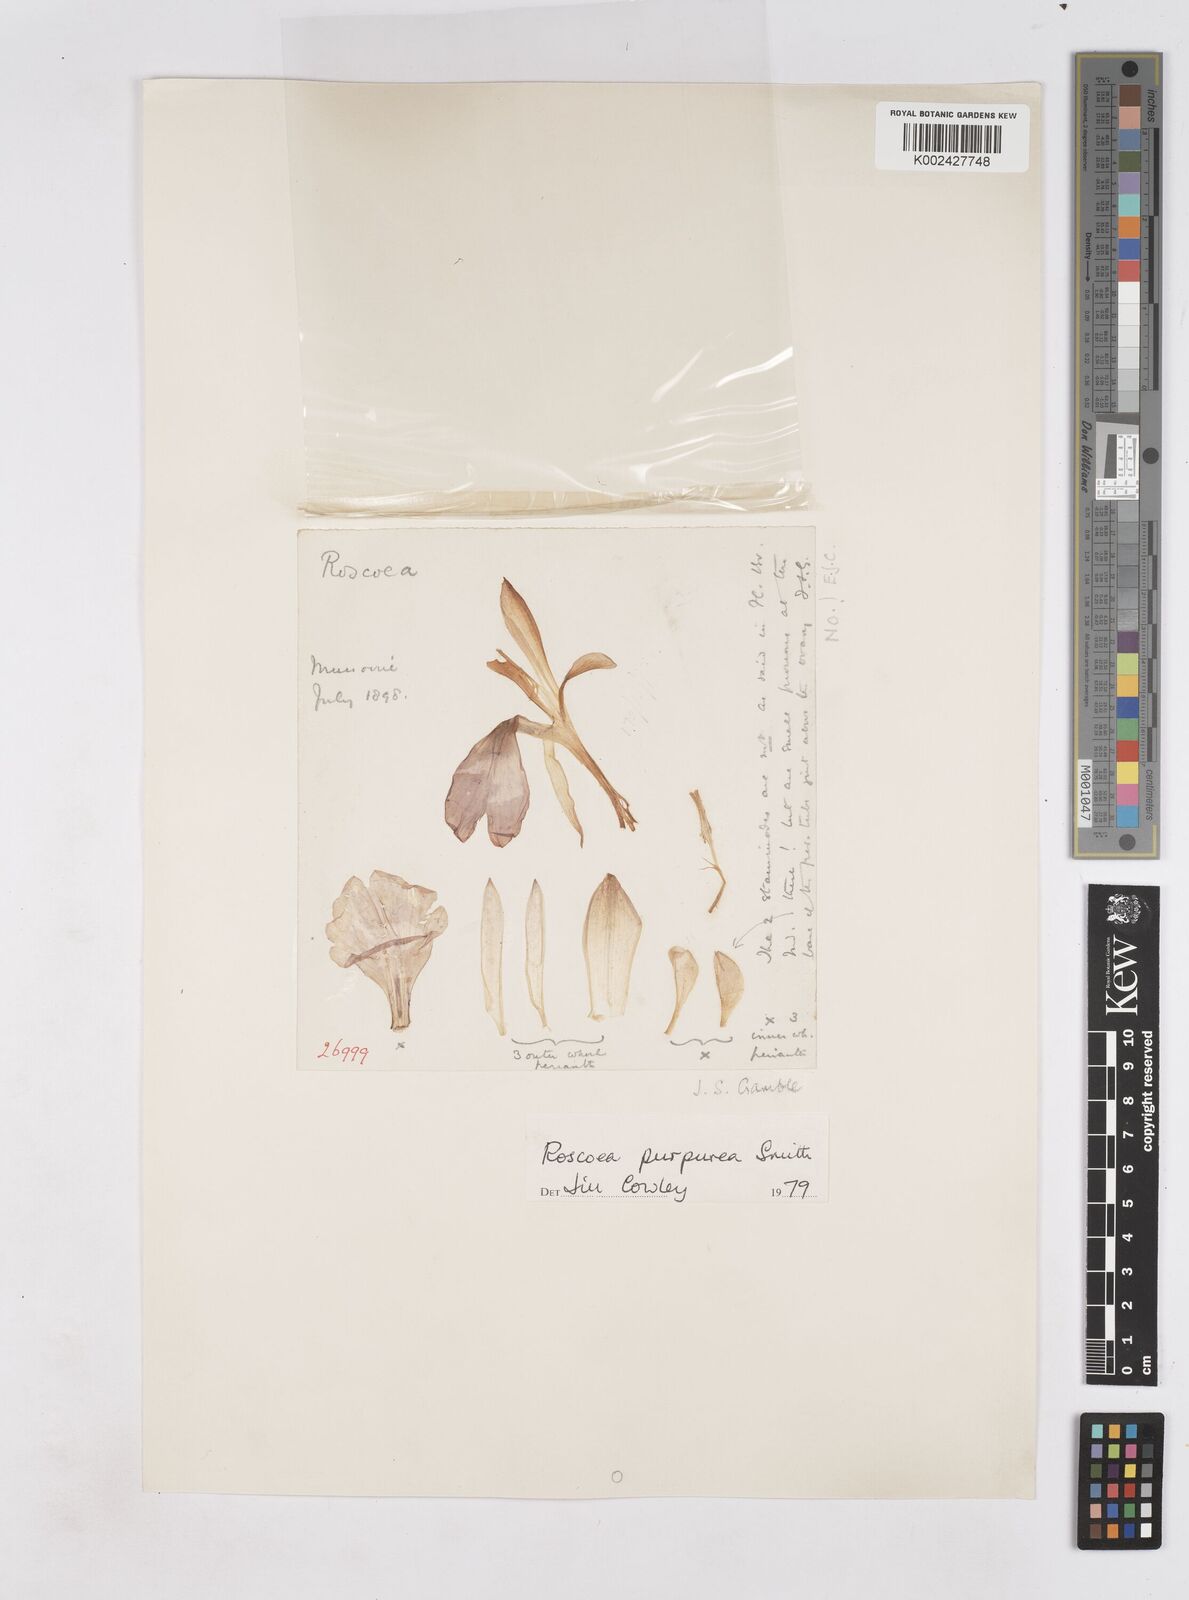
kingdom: Plantae
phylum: Tracheophyta
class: Liliopsida
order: Zingiberales
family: Zingiberaceae
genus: Roscoea
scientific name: Roscoea purpurea
